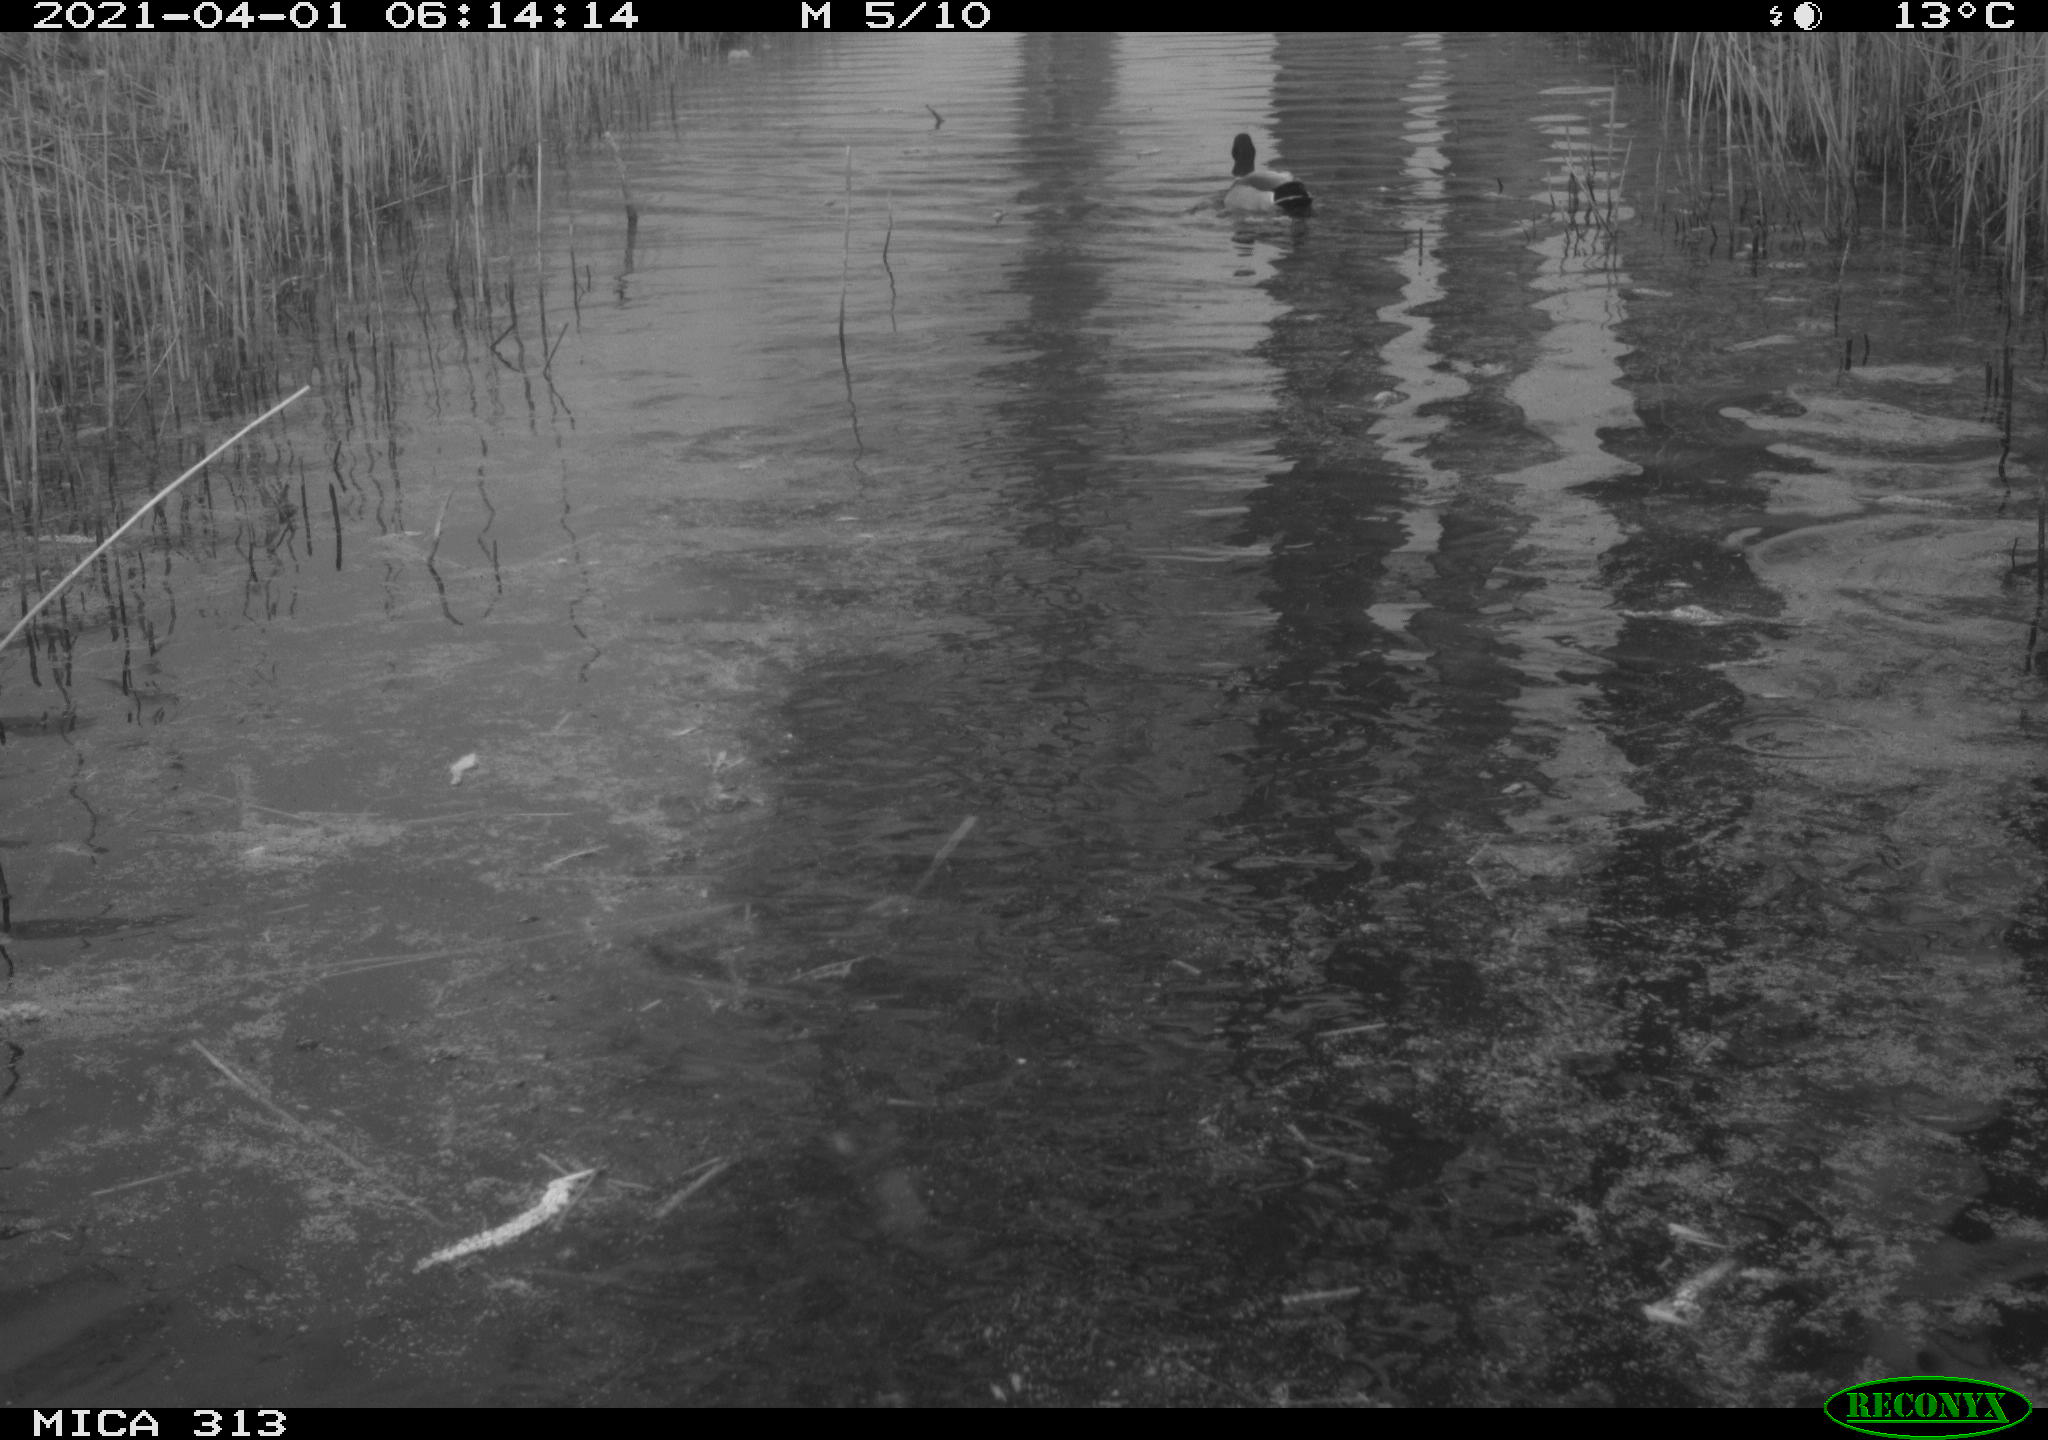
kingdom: Animalia
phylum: Chordata
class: Aves
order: Anseriformes
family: Anatidae
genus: Anas
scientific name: Anas platyrhynchos
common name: Mallard
